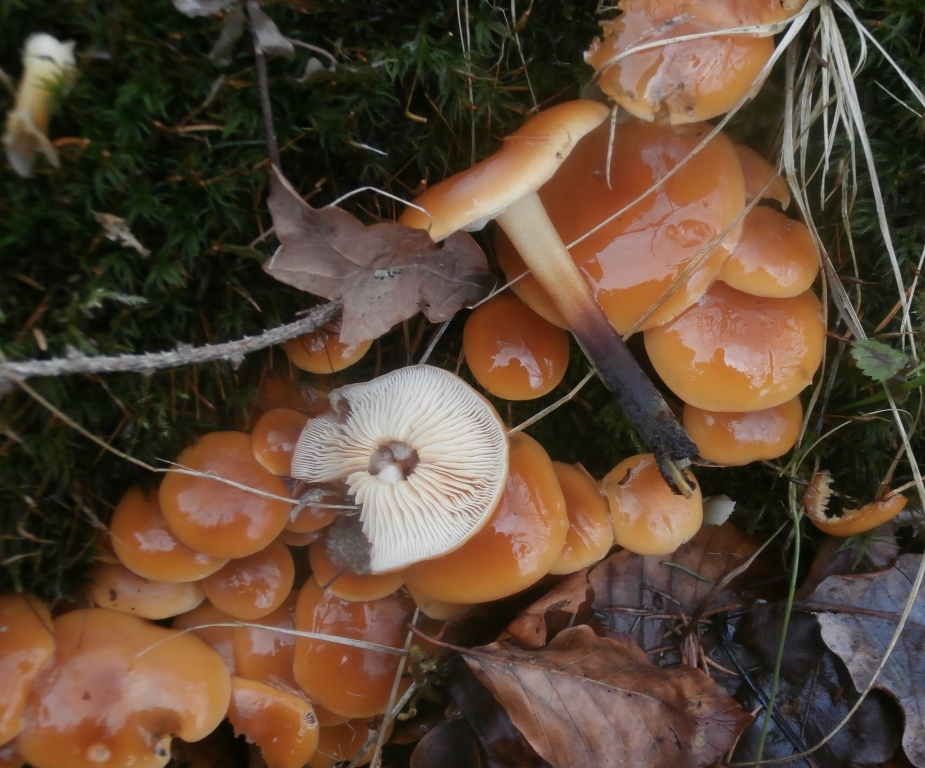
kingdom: Fungi
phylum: Basidiomycota
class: Agaricomycetes
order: Agaricales
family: Physalacriaceae
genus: Flammulina
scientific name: Flammulina velutipes
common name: gul fløjlsfod
